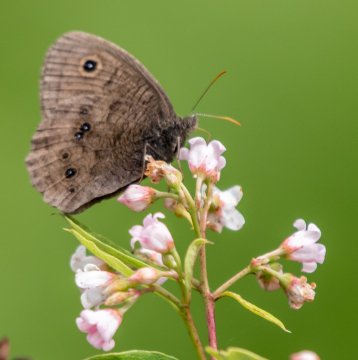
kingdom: Animalia
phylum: Arthropoda
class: Insecta
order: Lepidoptera
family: Nymphalidae
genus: Cercyonis
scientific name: Cercyonis pegala
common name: Common Wood-Nymph
